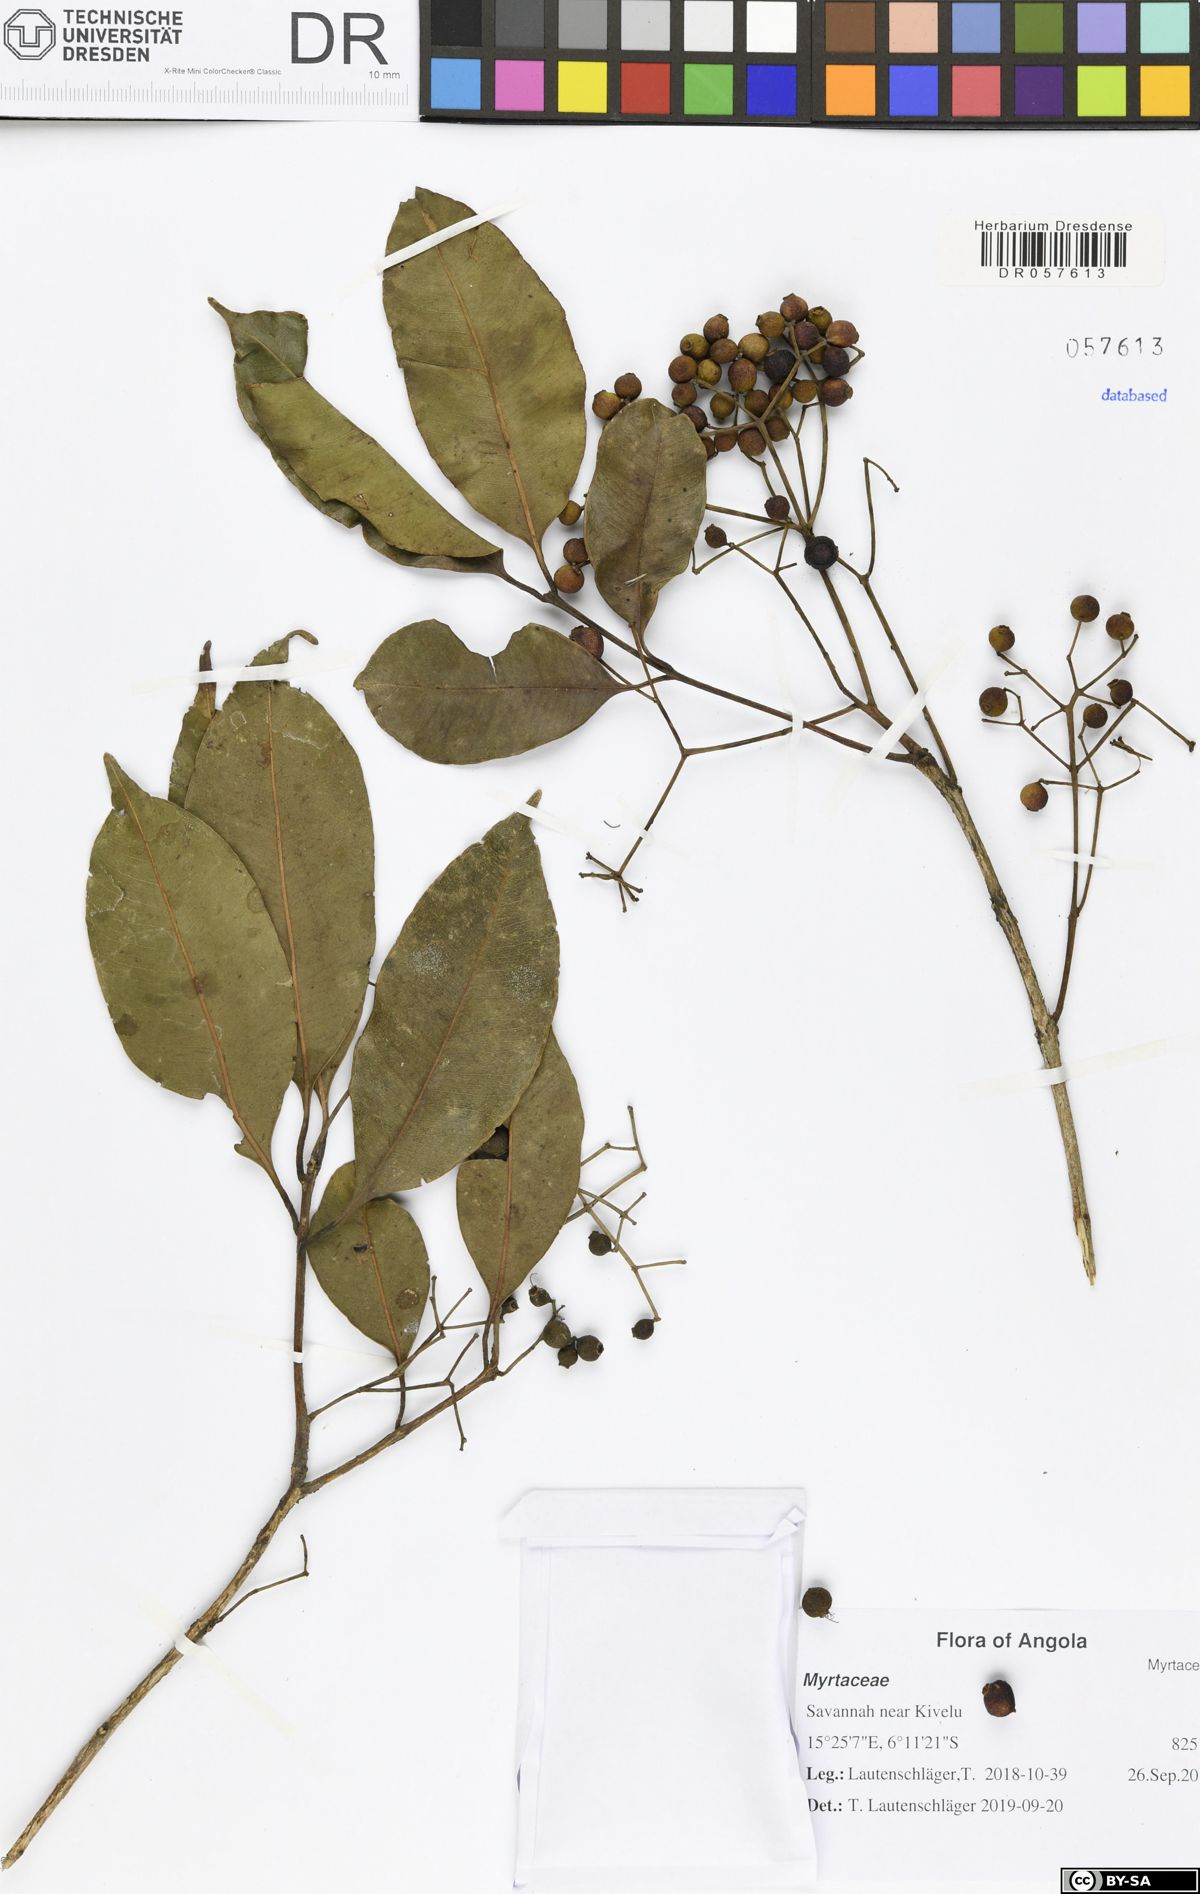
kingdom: Plantae
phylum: Tracheophyta
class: Magnoliopsida
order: Myrtales
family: Myrtaceae
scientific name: Myrtaceae
